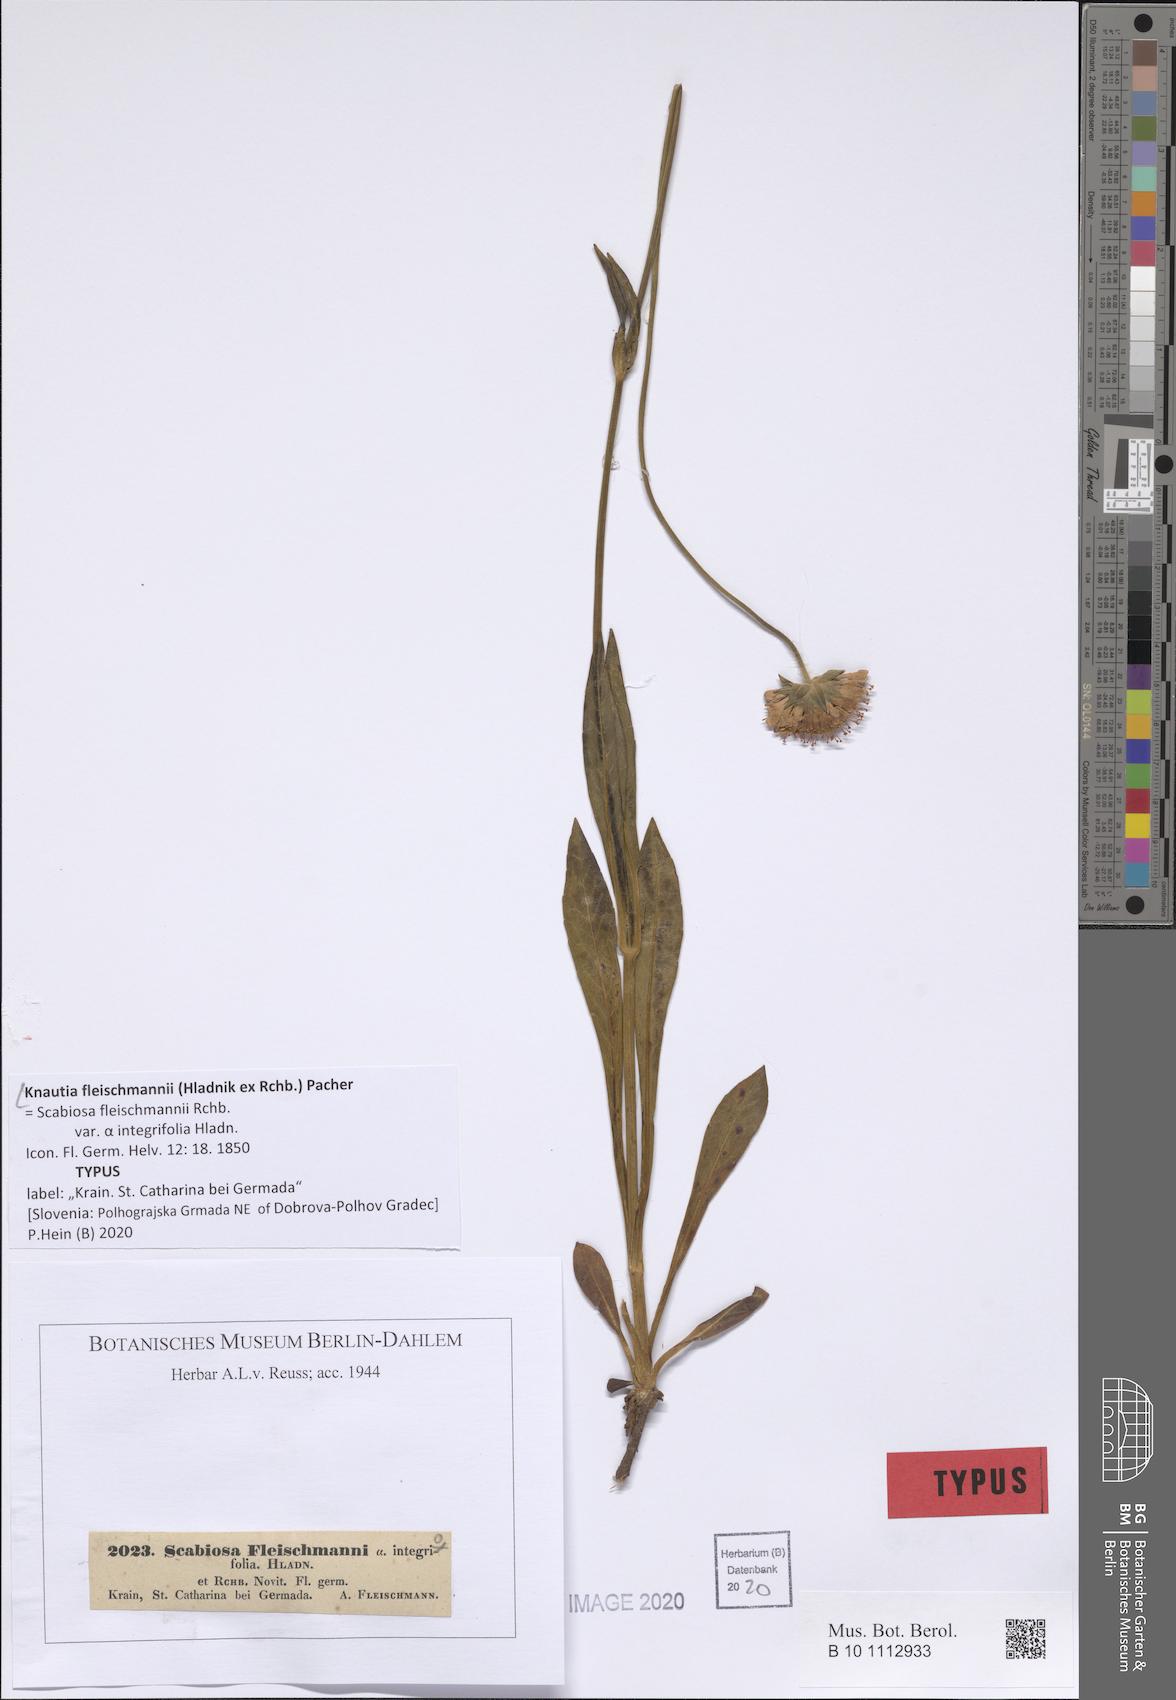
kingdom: Plantae
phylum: Tracheophyta
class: Magnoliopsida
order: Dipsacales
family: Caprifoliaceae
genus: Knautia
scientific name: Knautia fleischmannii
